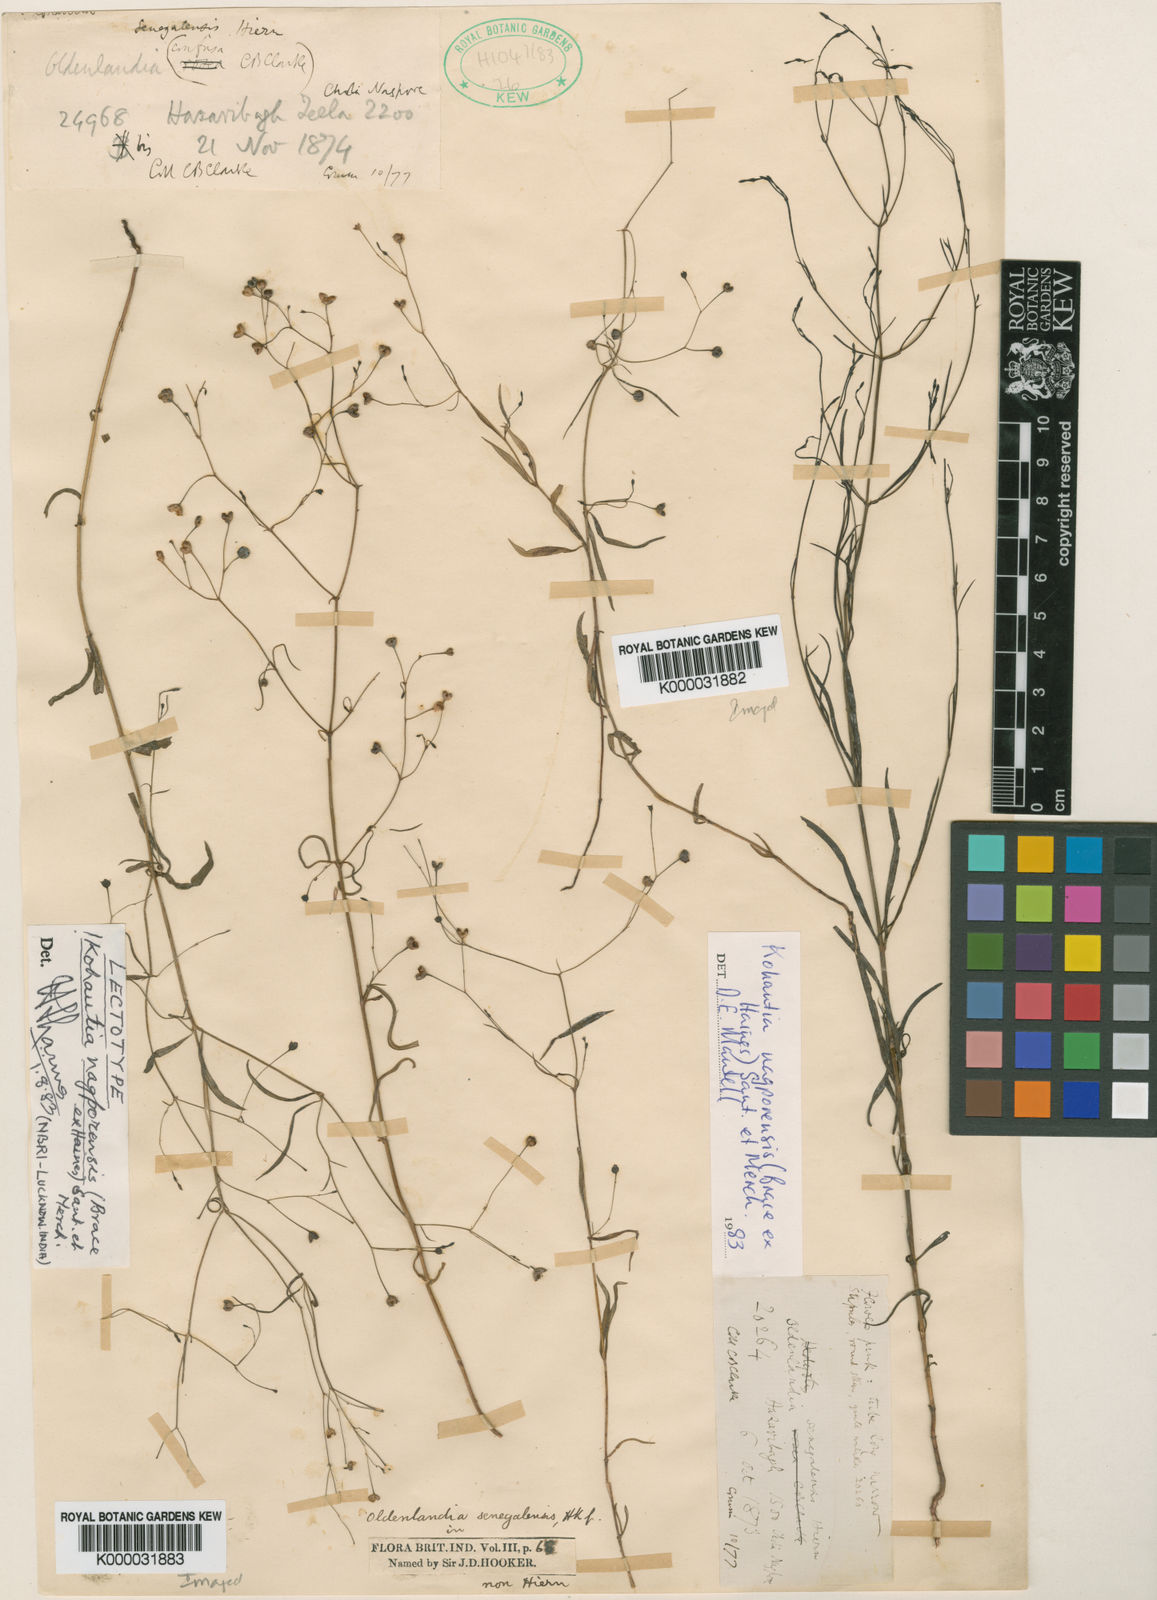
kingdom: Plantae
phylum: Tracheophyta
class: Magnoliopsida
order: Gentianales
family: Rubiaceae
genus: Kohautia
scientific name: Kohautia nagporensis
